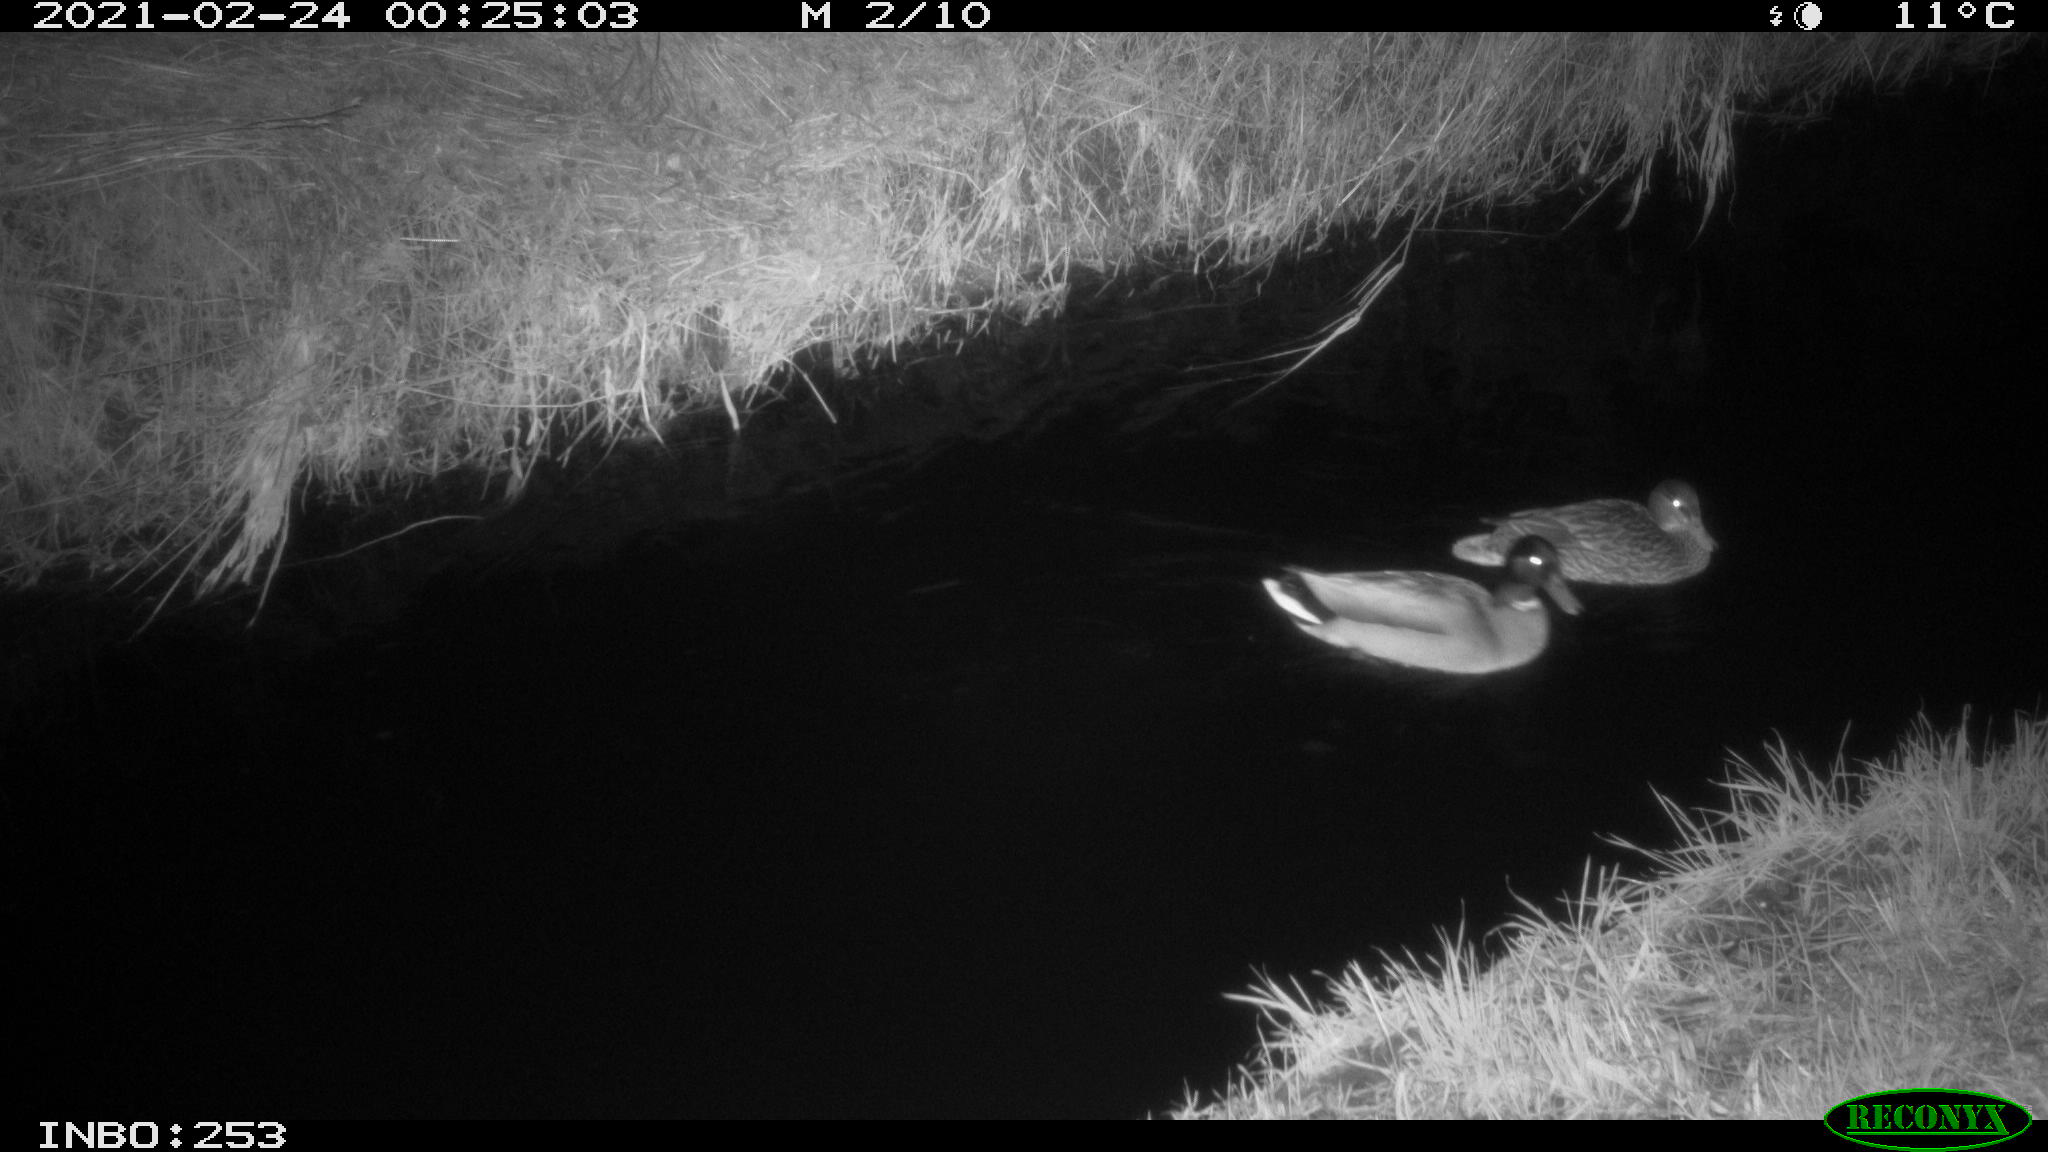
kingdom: Animalia
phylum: Chordata
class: Aves
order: Anseriformes
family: Anatidae
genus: Anas
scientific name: Anas platyrhynchos
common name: Mallard
